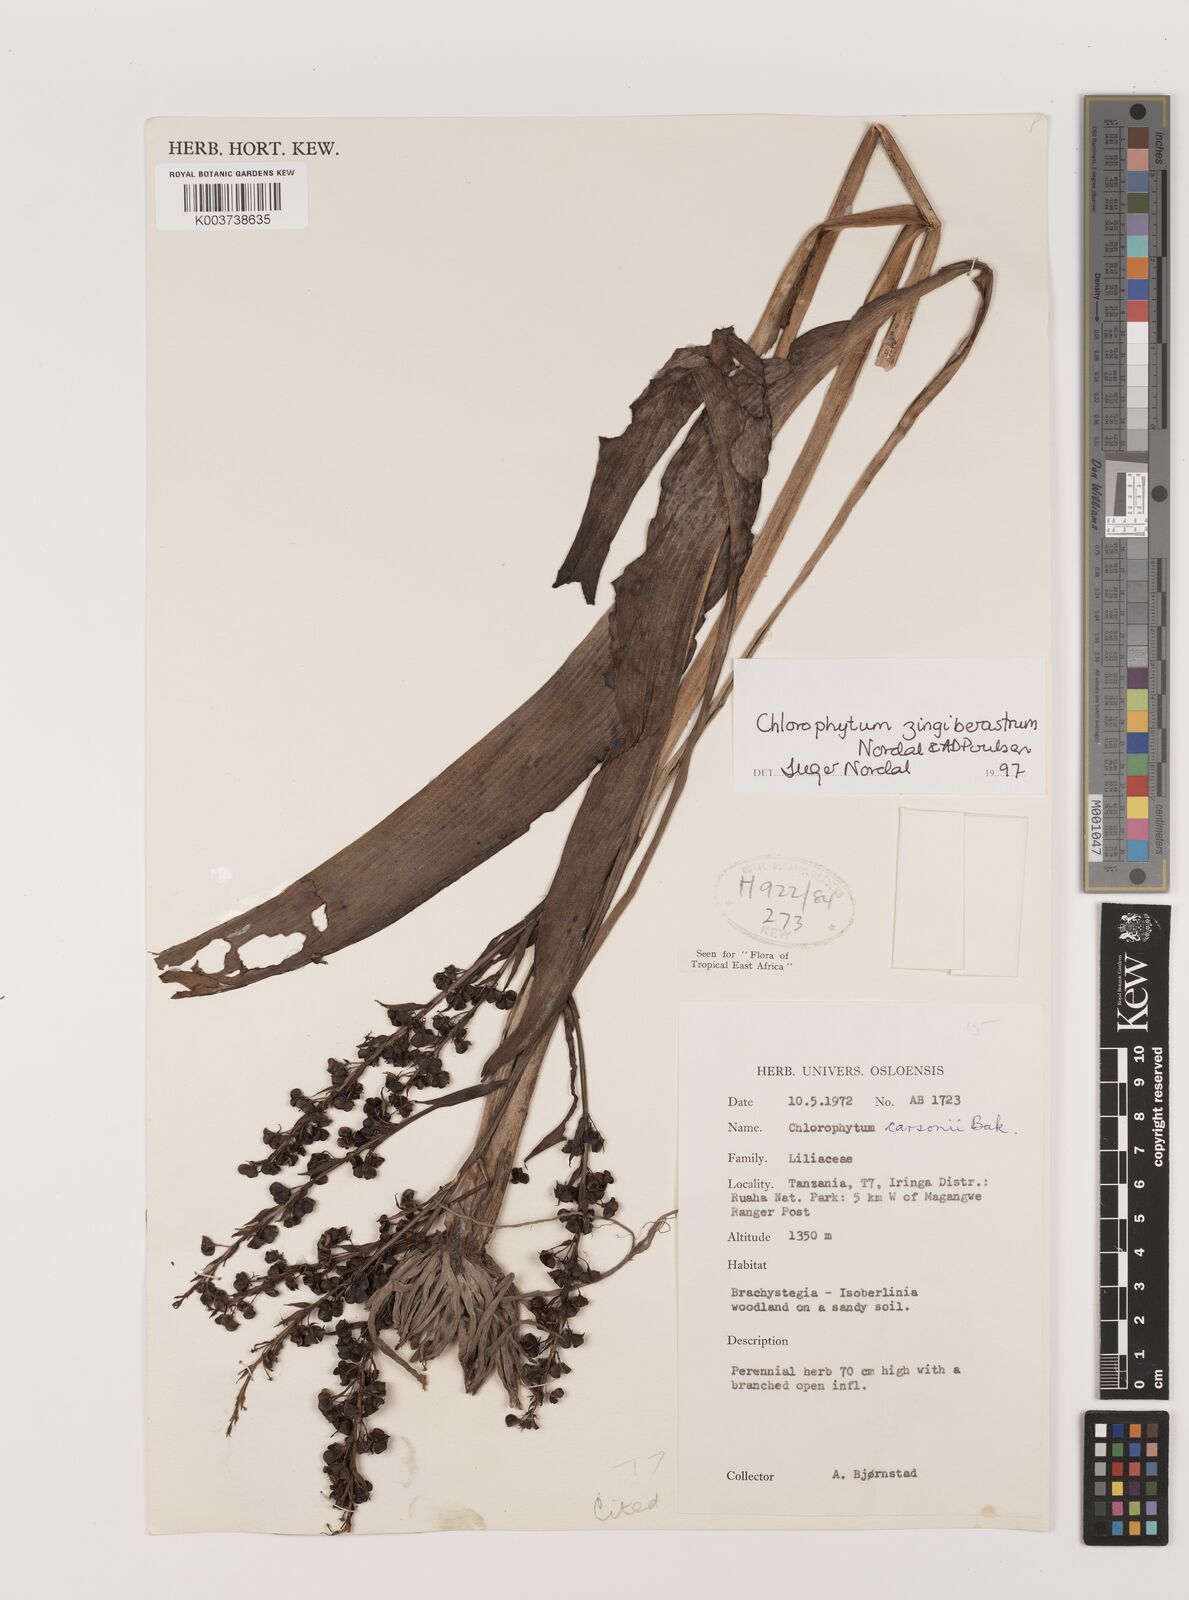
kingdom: Plantae
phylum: Tracheophyta
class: Liliopsida
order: Asparagales
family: Asparagaceae
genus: Chlorophytum
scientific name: Chlorophytum zingiberastrum
